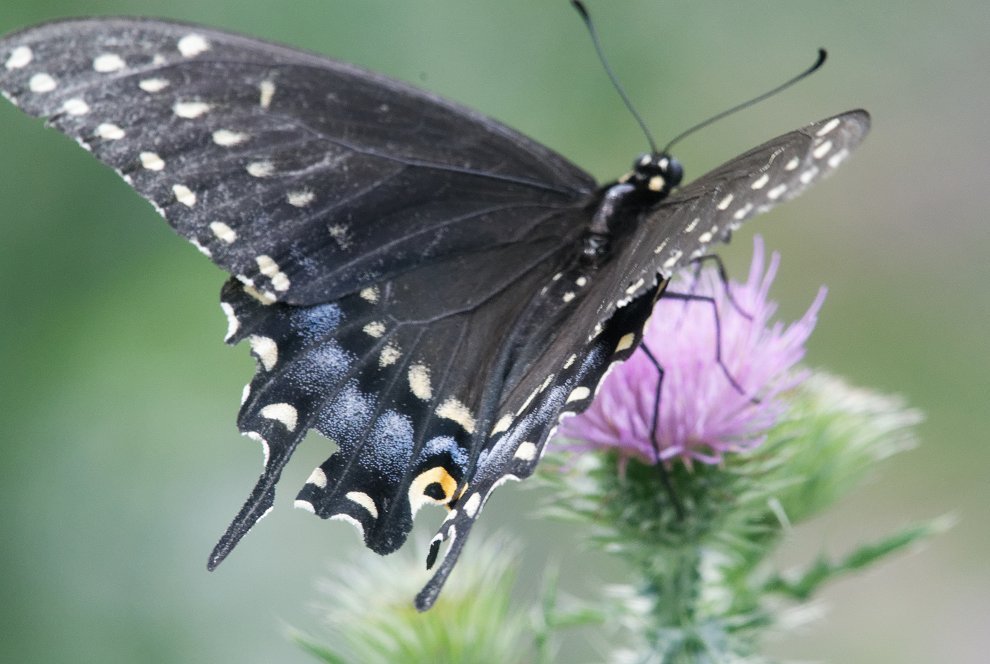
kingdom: Animalia
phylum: Arthropoda
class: Insecta
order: Lepidoptera
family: Papilionidae
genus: Papilio
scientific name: Papilio polyxenes
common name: Black Swallowtail
